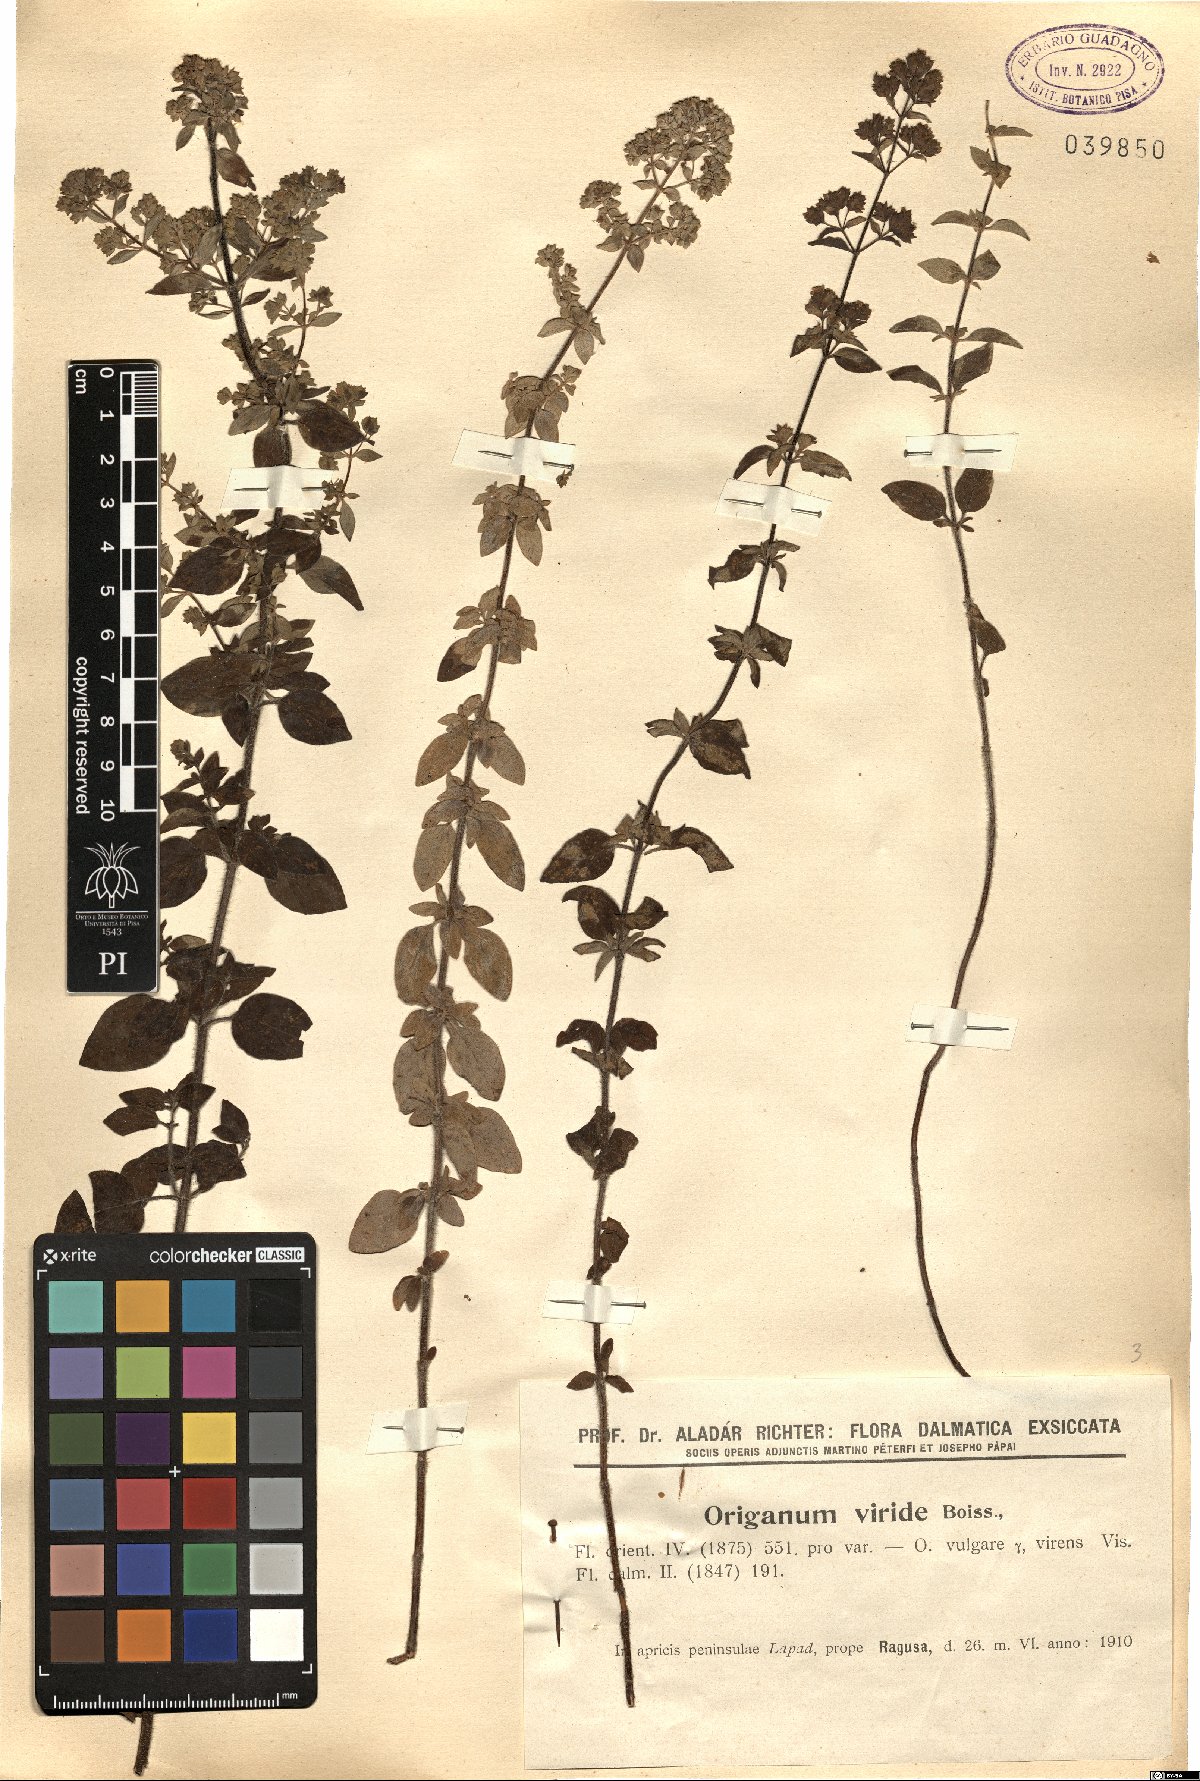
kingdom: Plantae
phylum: Tracheophyta
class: Magnoliopsida
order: Lamiales
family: Lamiaceae
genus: Origanum
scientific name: Origanum vulgare
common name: Wild marjoram
